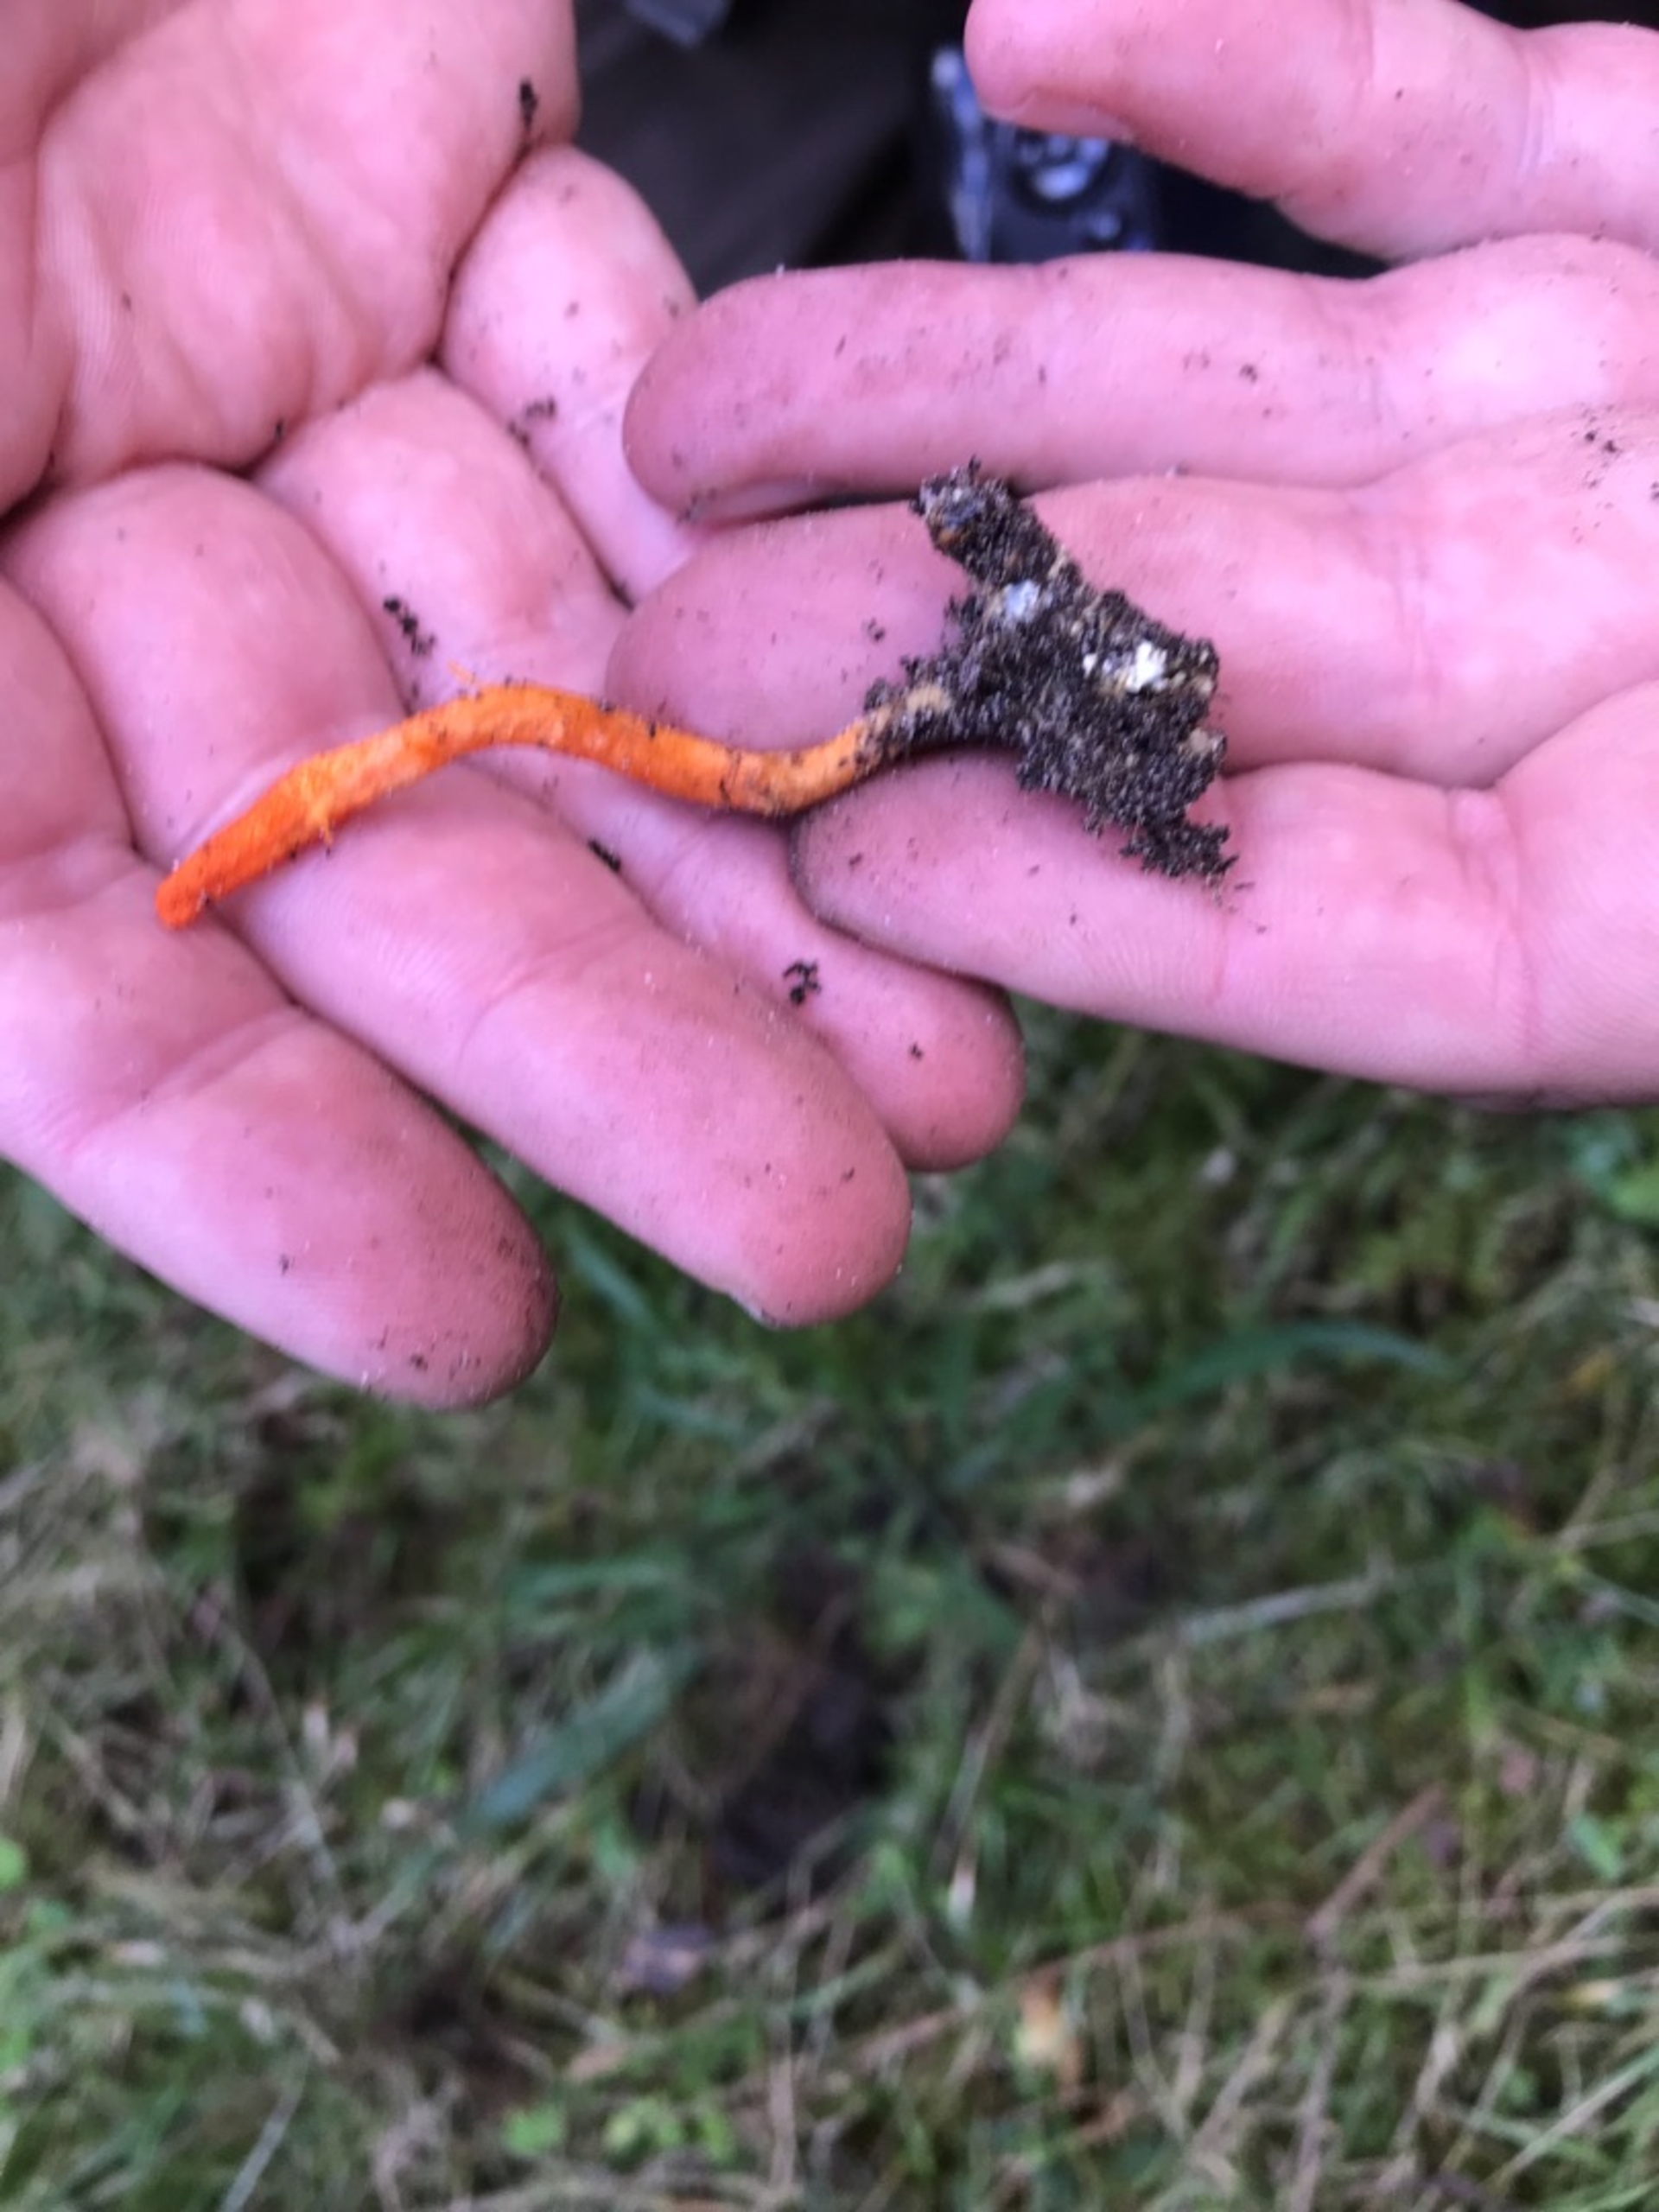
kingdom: Fungi
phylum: Ascomycota
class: Sordariomycetes
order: Hypocreales
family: Cordycipitaceae
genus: Cordyceps
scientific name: Cordyceps militaris
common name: Puppe-snyltekølle
